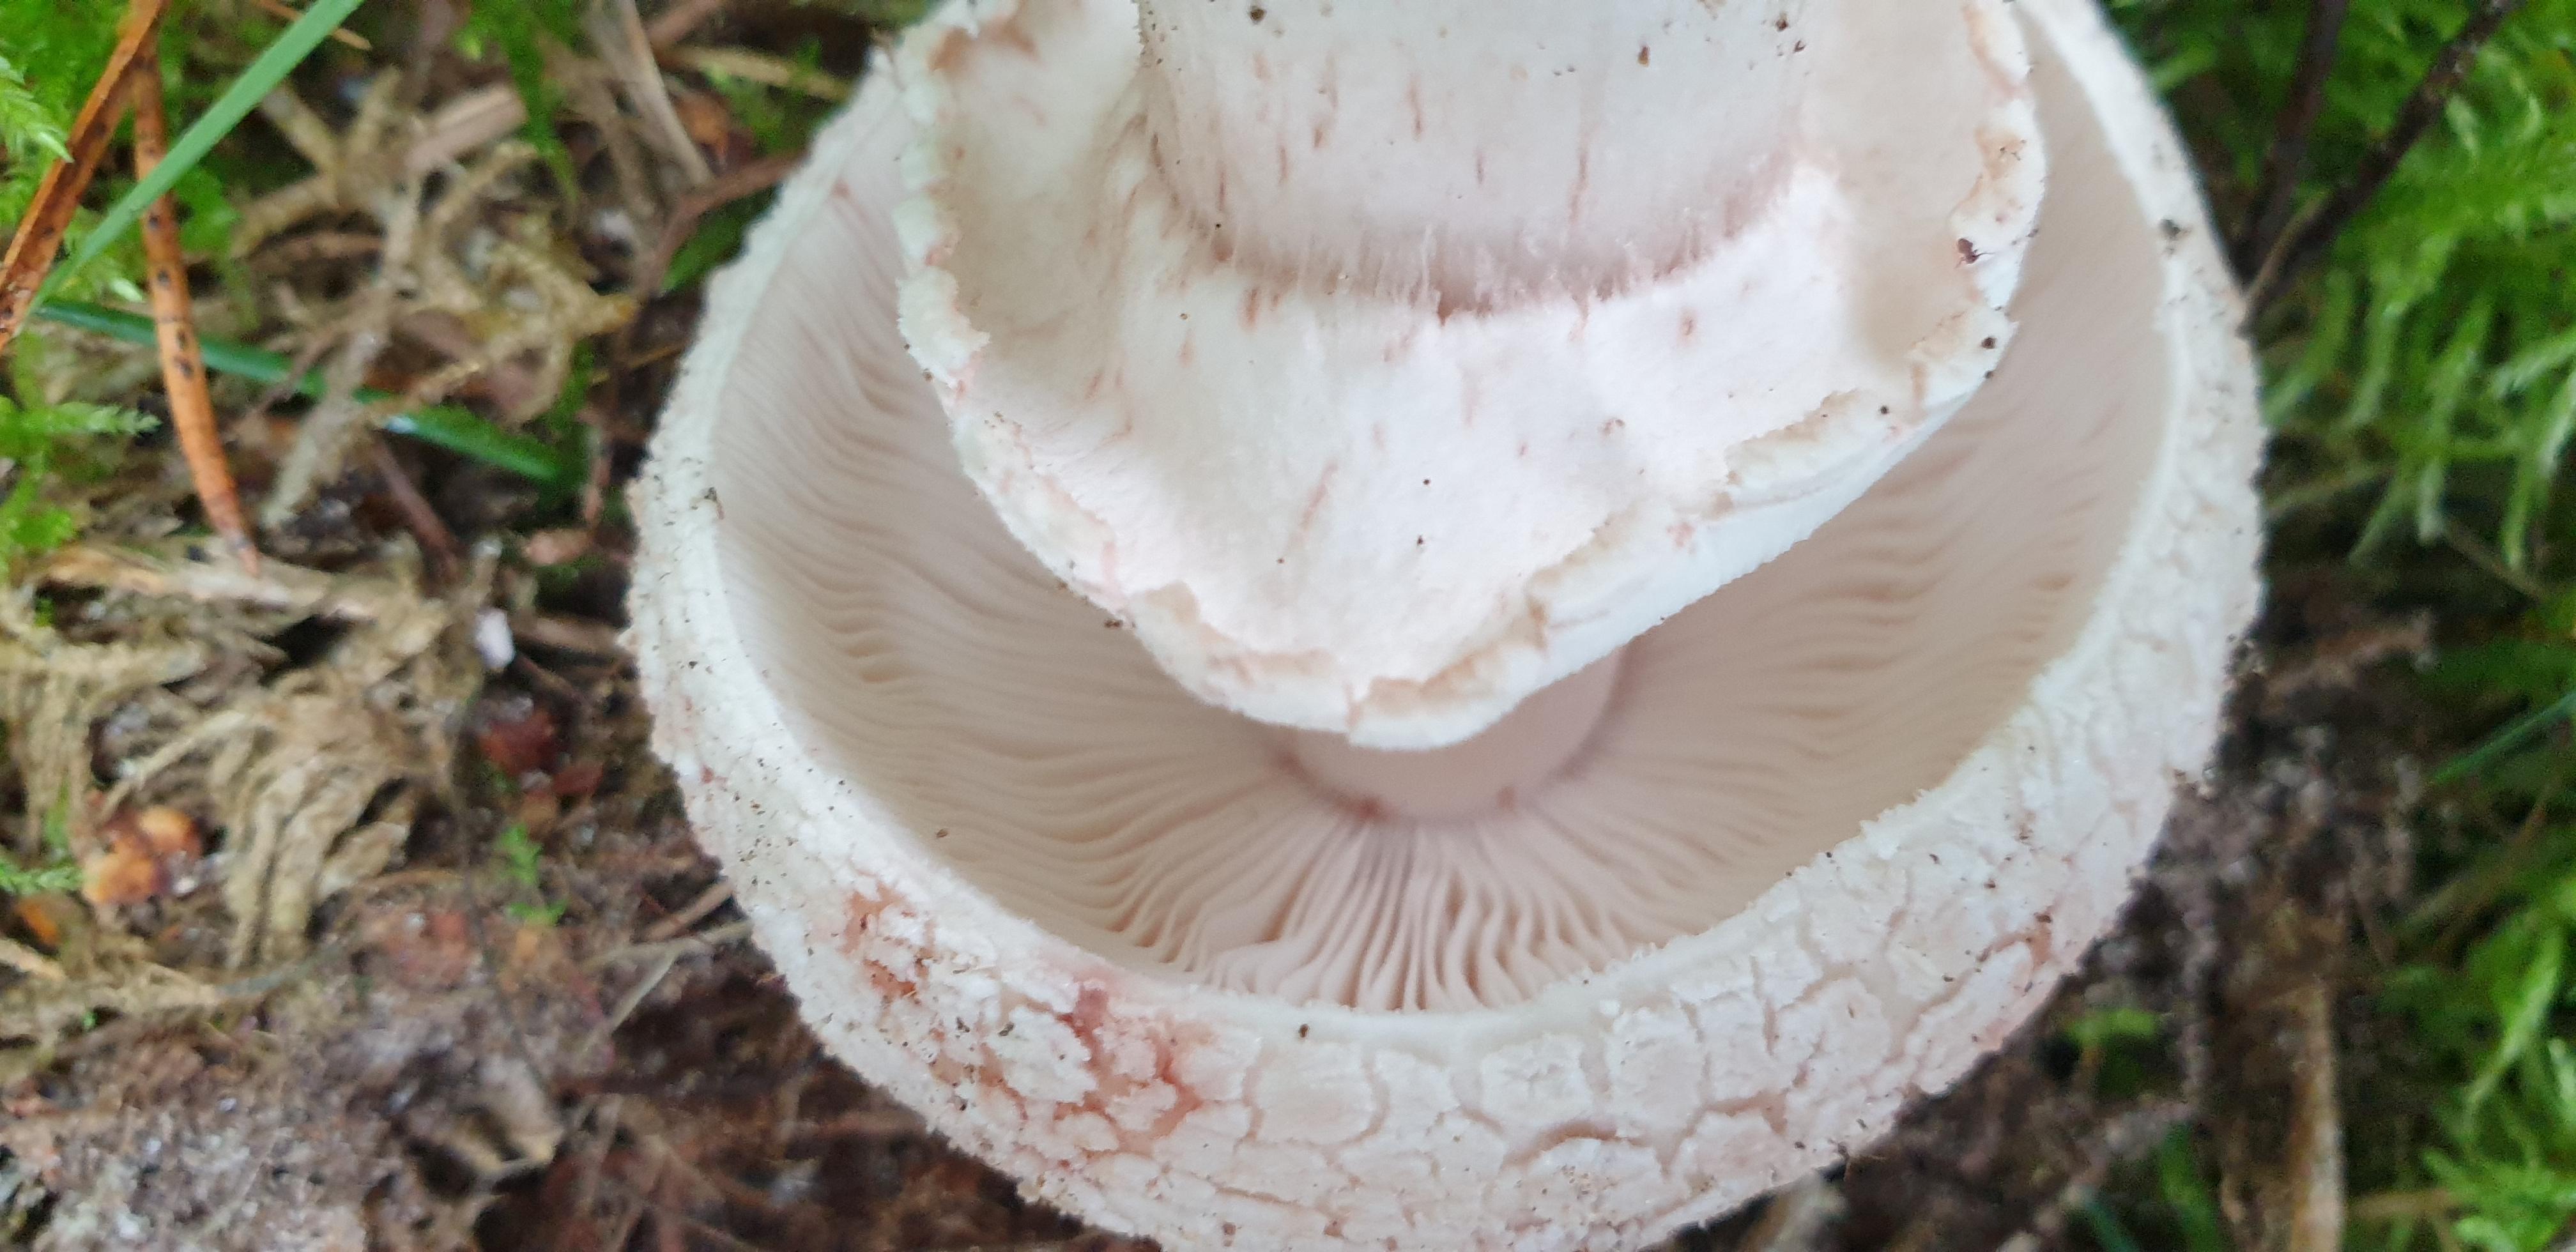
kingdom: Fungi
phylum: Basidiomycota
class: Agaricomycetes
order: Agaricales
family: Amanitaceae
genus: Amanita
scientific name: Amanita rubescens
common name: rødmende fluesvamp
